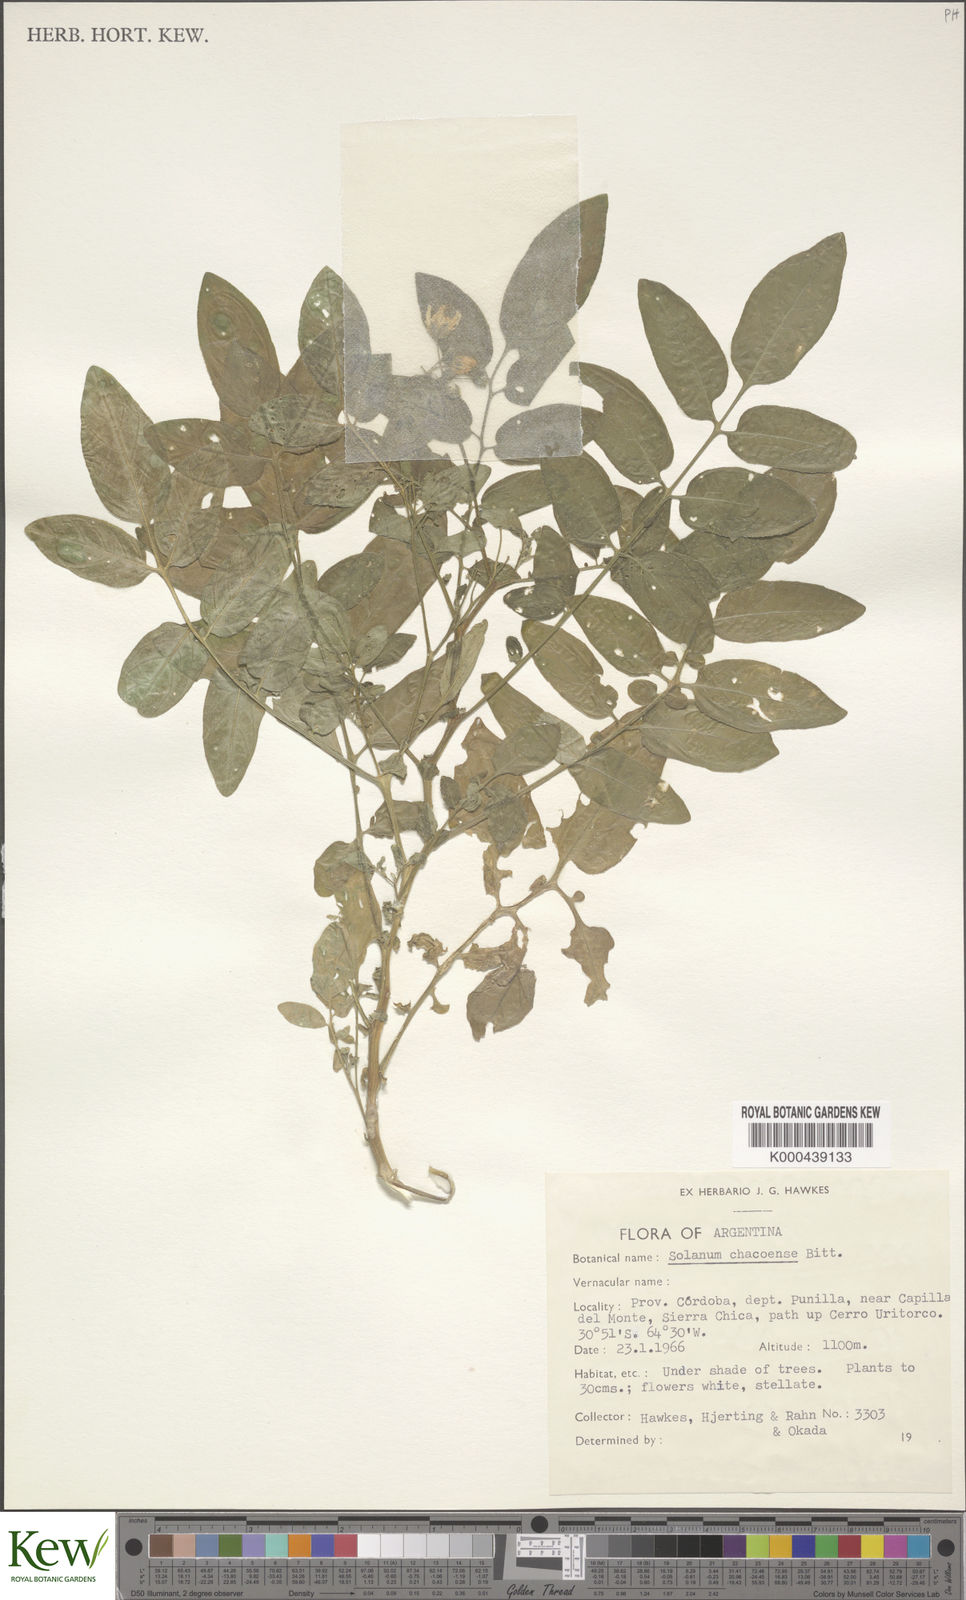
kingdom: Plantae
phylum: Tracheophyta
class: Magnoliopsida
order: Solanales
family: Solanaceae
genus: Solanum
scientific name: Solanum chacoense
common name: Chaco potato
